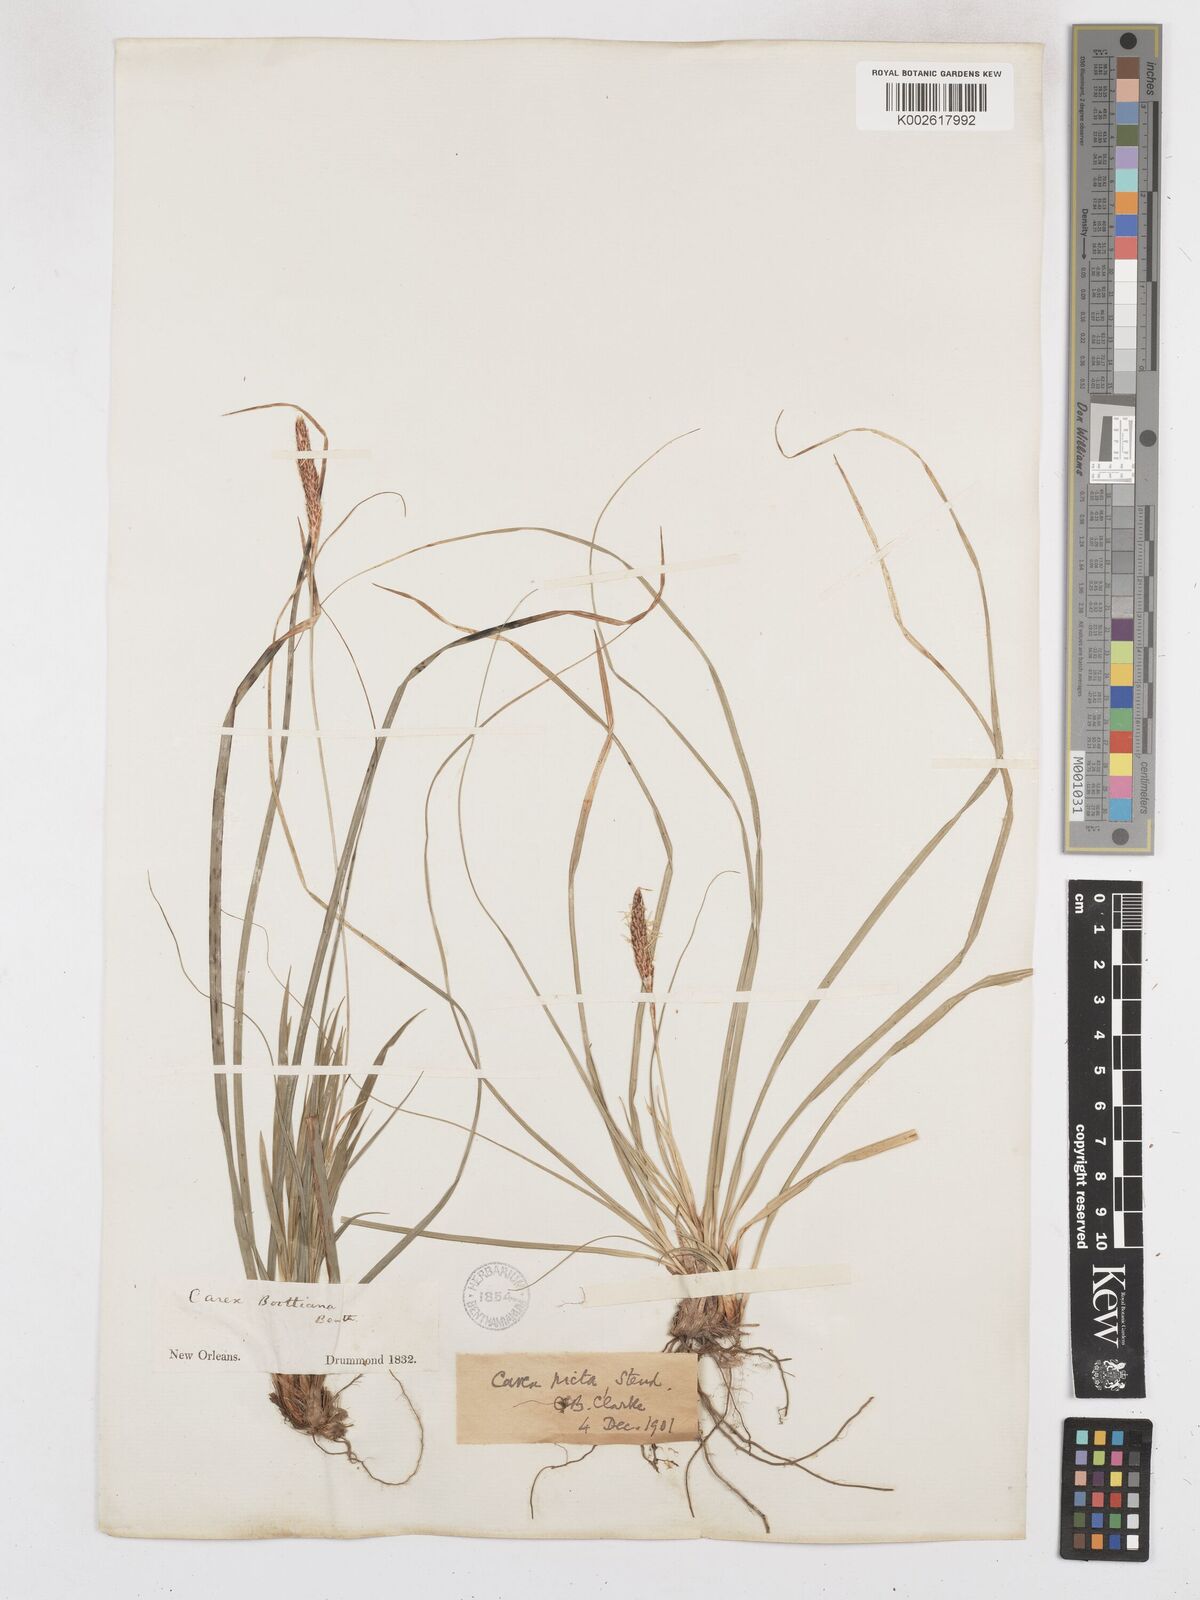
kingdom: Plantae
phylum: Tracheophyta
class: Liliopsida
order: Poales
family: Cyperaceae
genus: Carex
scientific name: Carex picta
